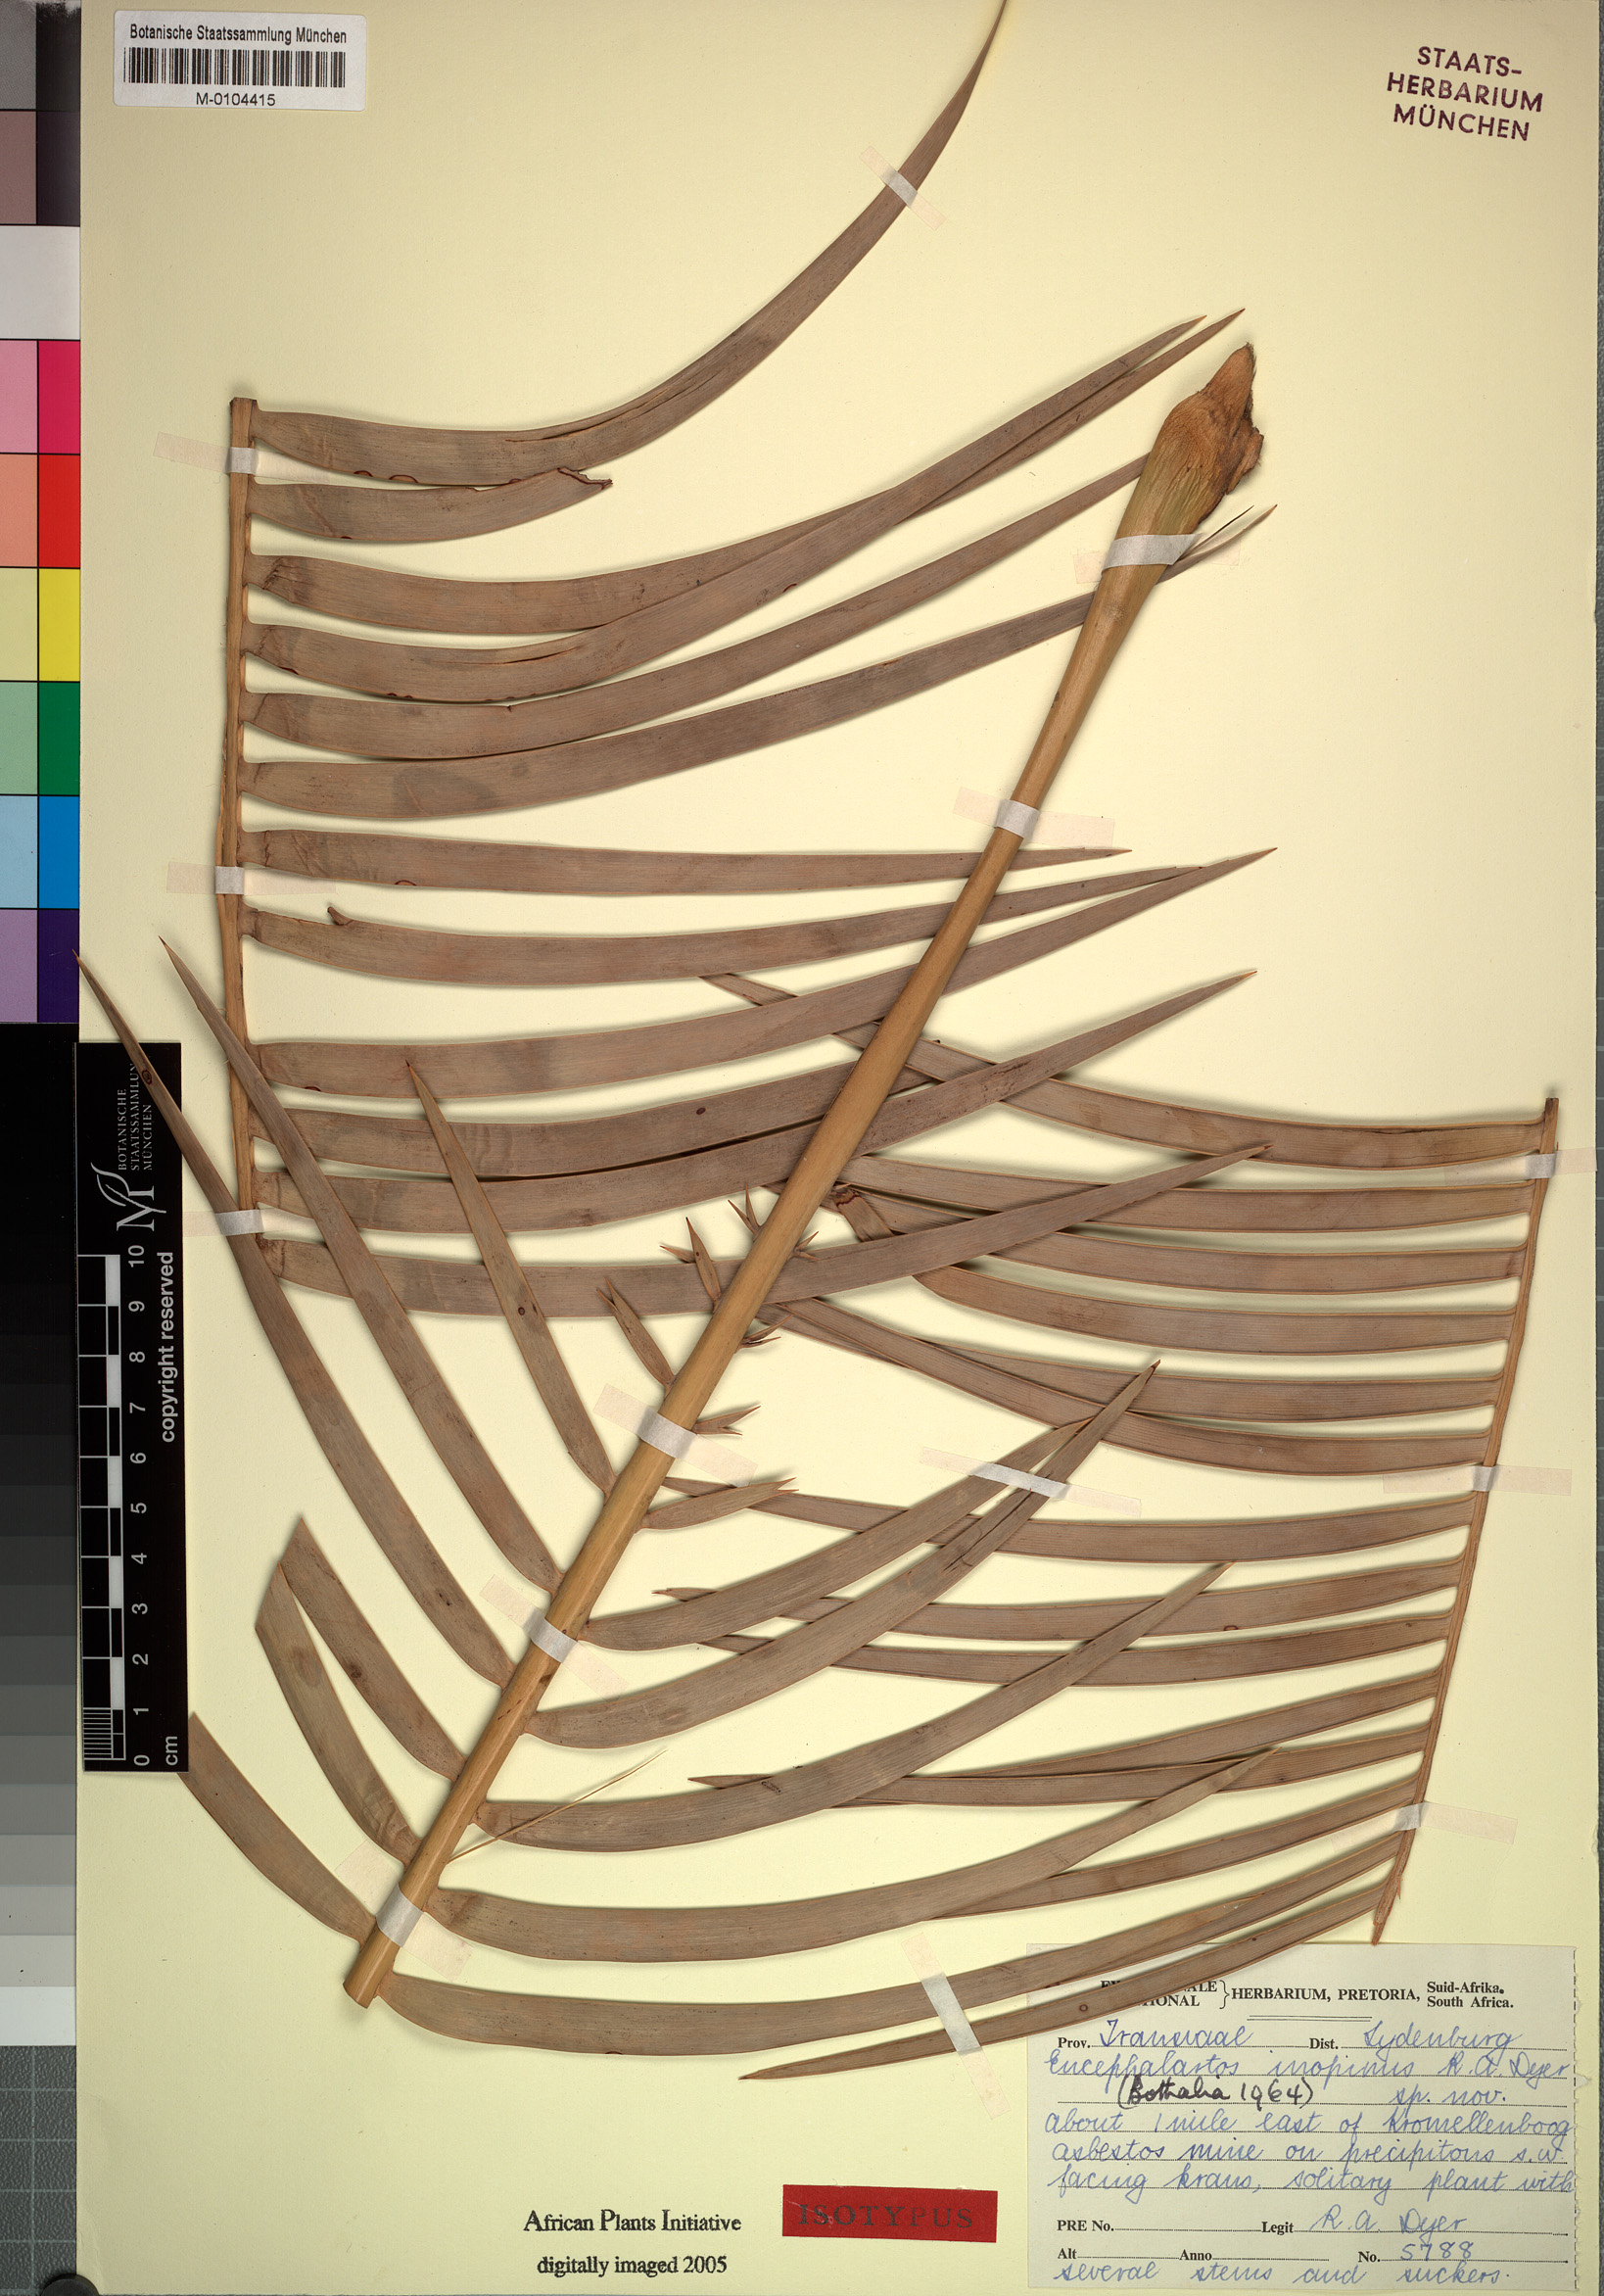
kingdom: Plantae
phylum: Tracheophyta
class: Cycadopsida
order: Cycadales
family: Zamiaceae
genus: Encephalartos
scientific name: Encephalartos inopinus
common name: Lydenburg cycad
